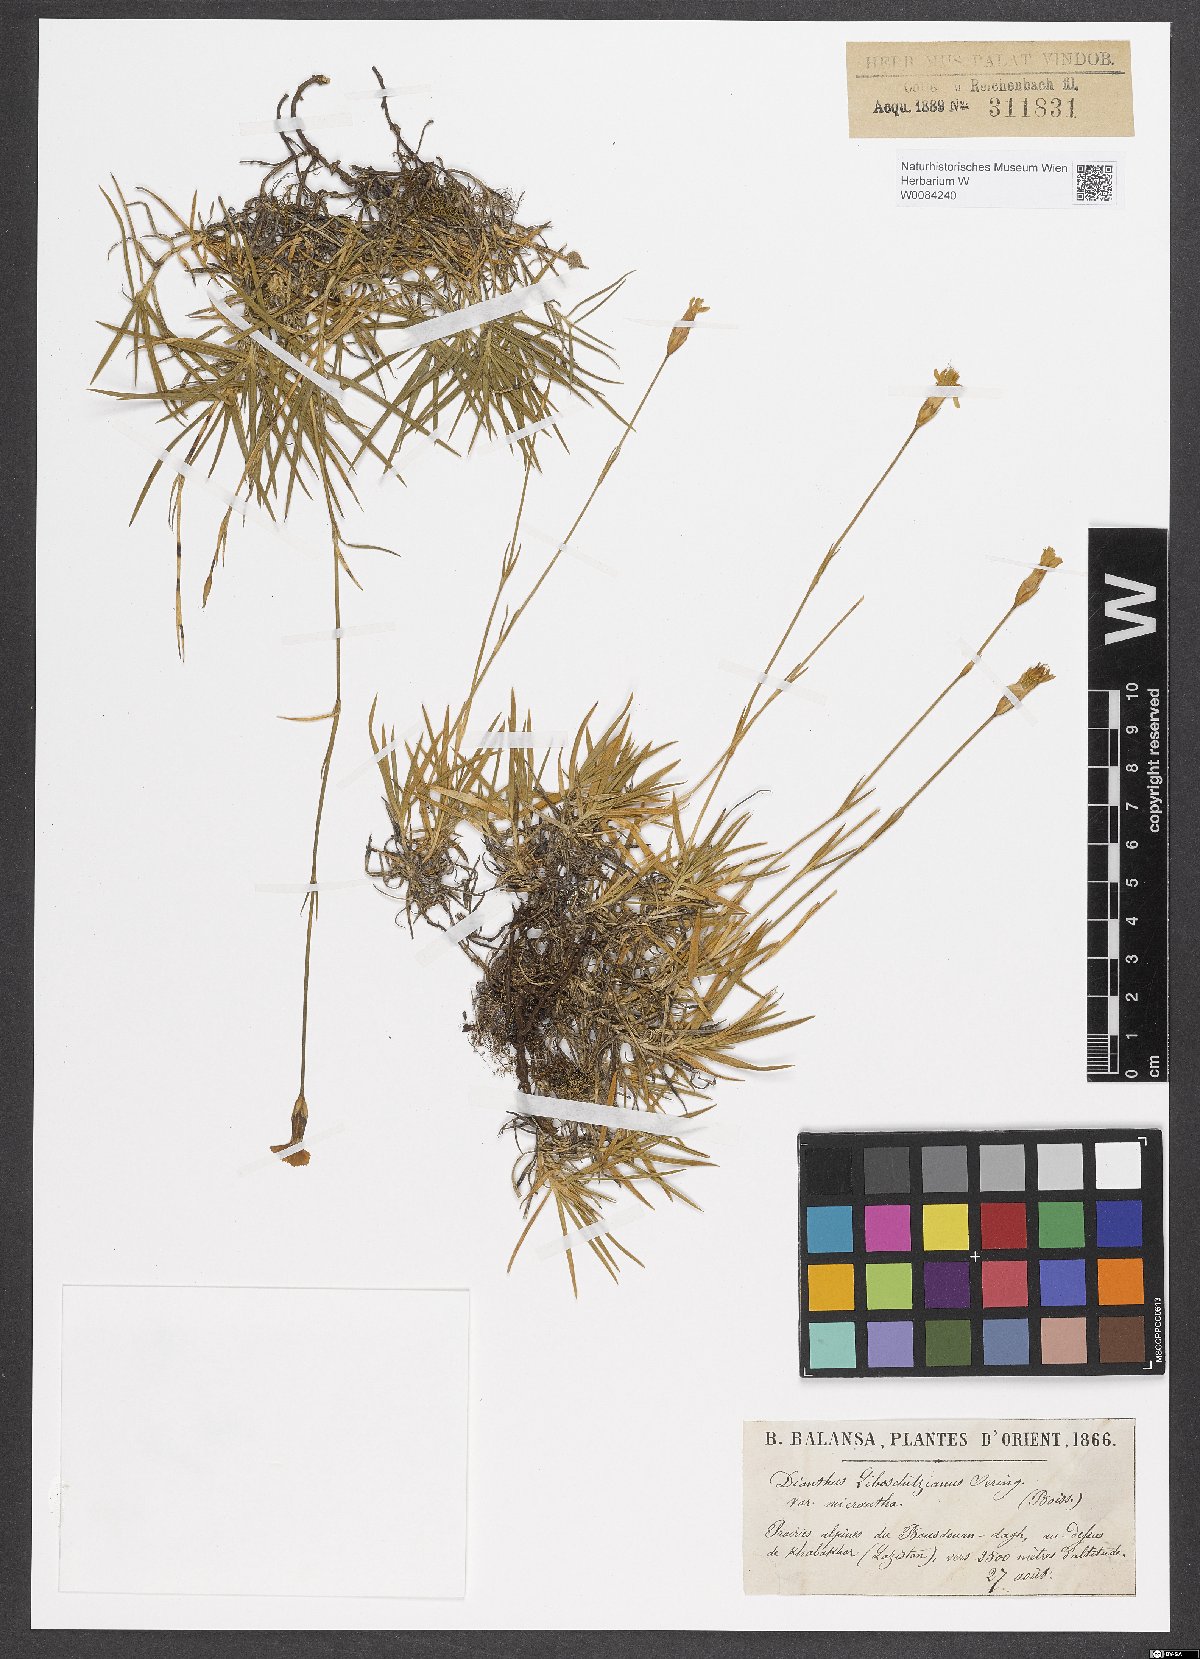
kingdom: Plantae
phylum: Tracheophyta
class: Magnoliopsida
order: Caryophyllales
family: Caryophyllaceae
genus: Dianthus
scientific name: Dianthus cretaceus
